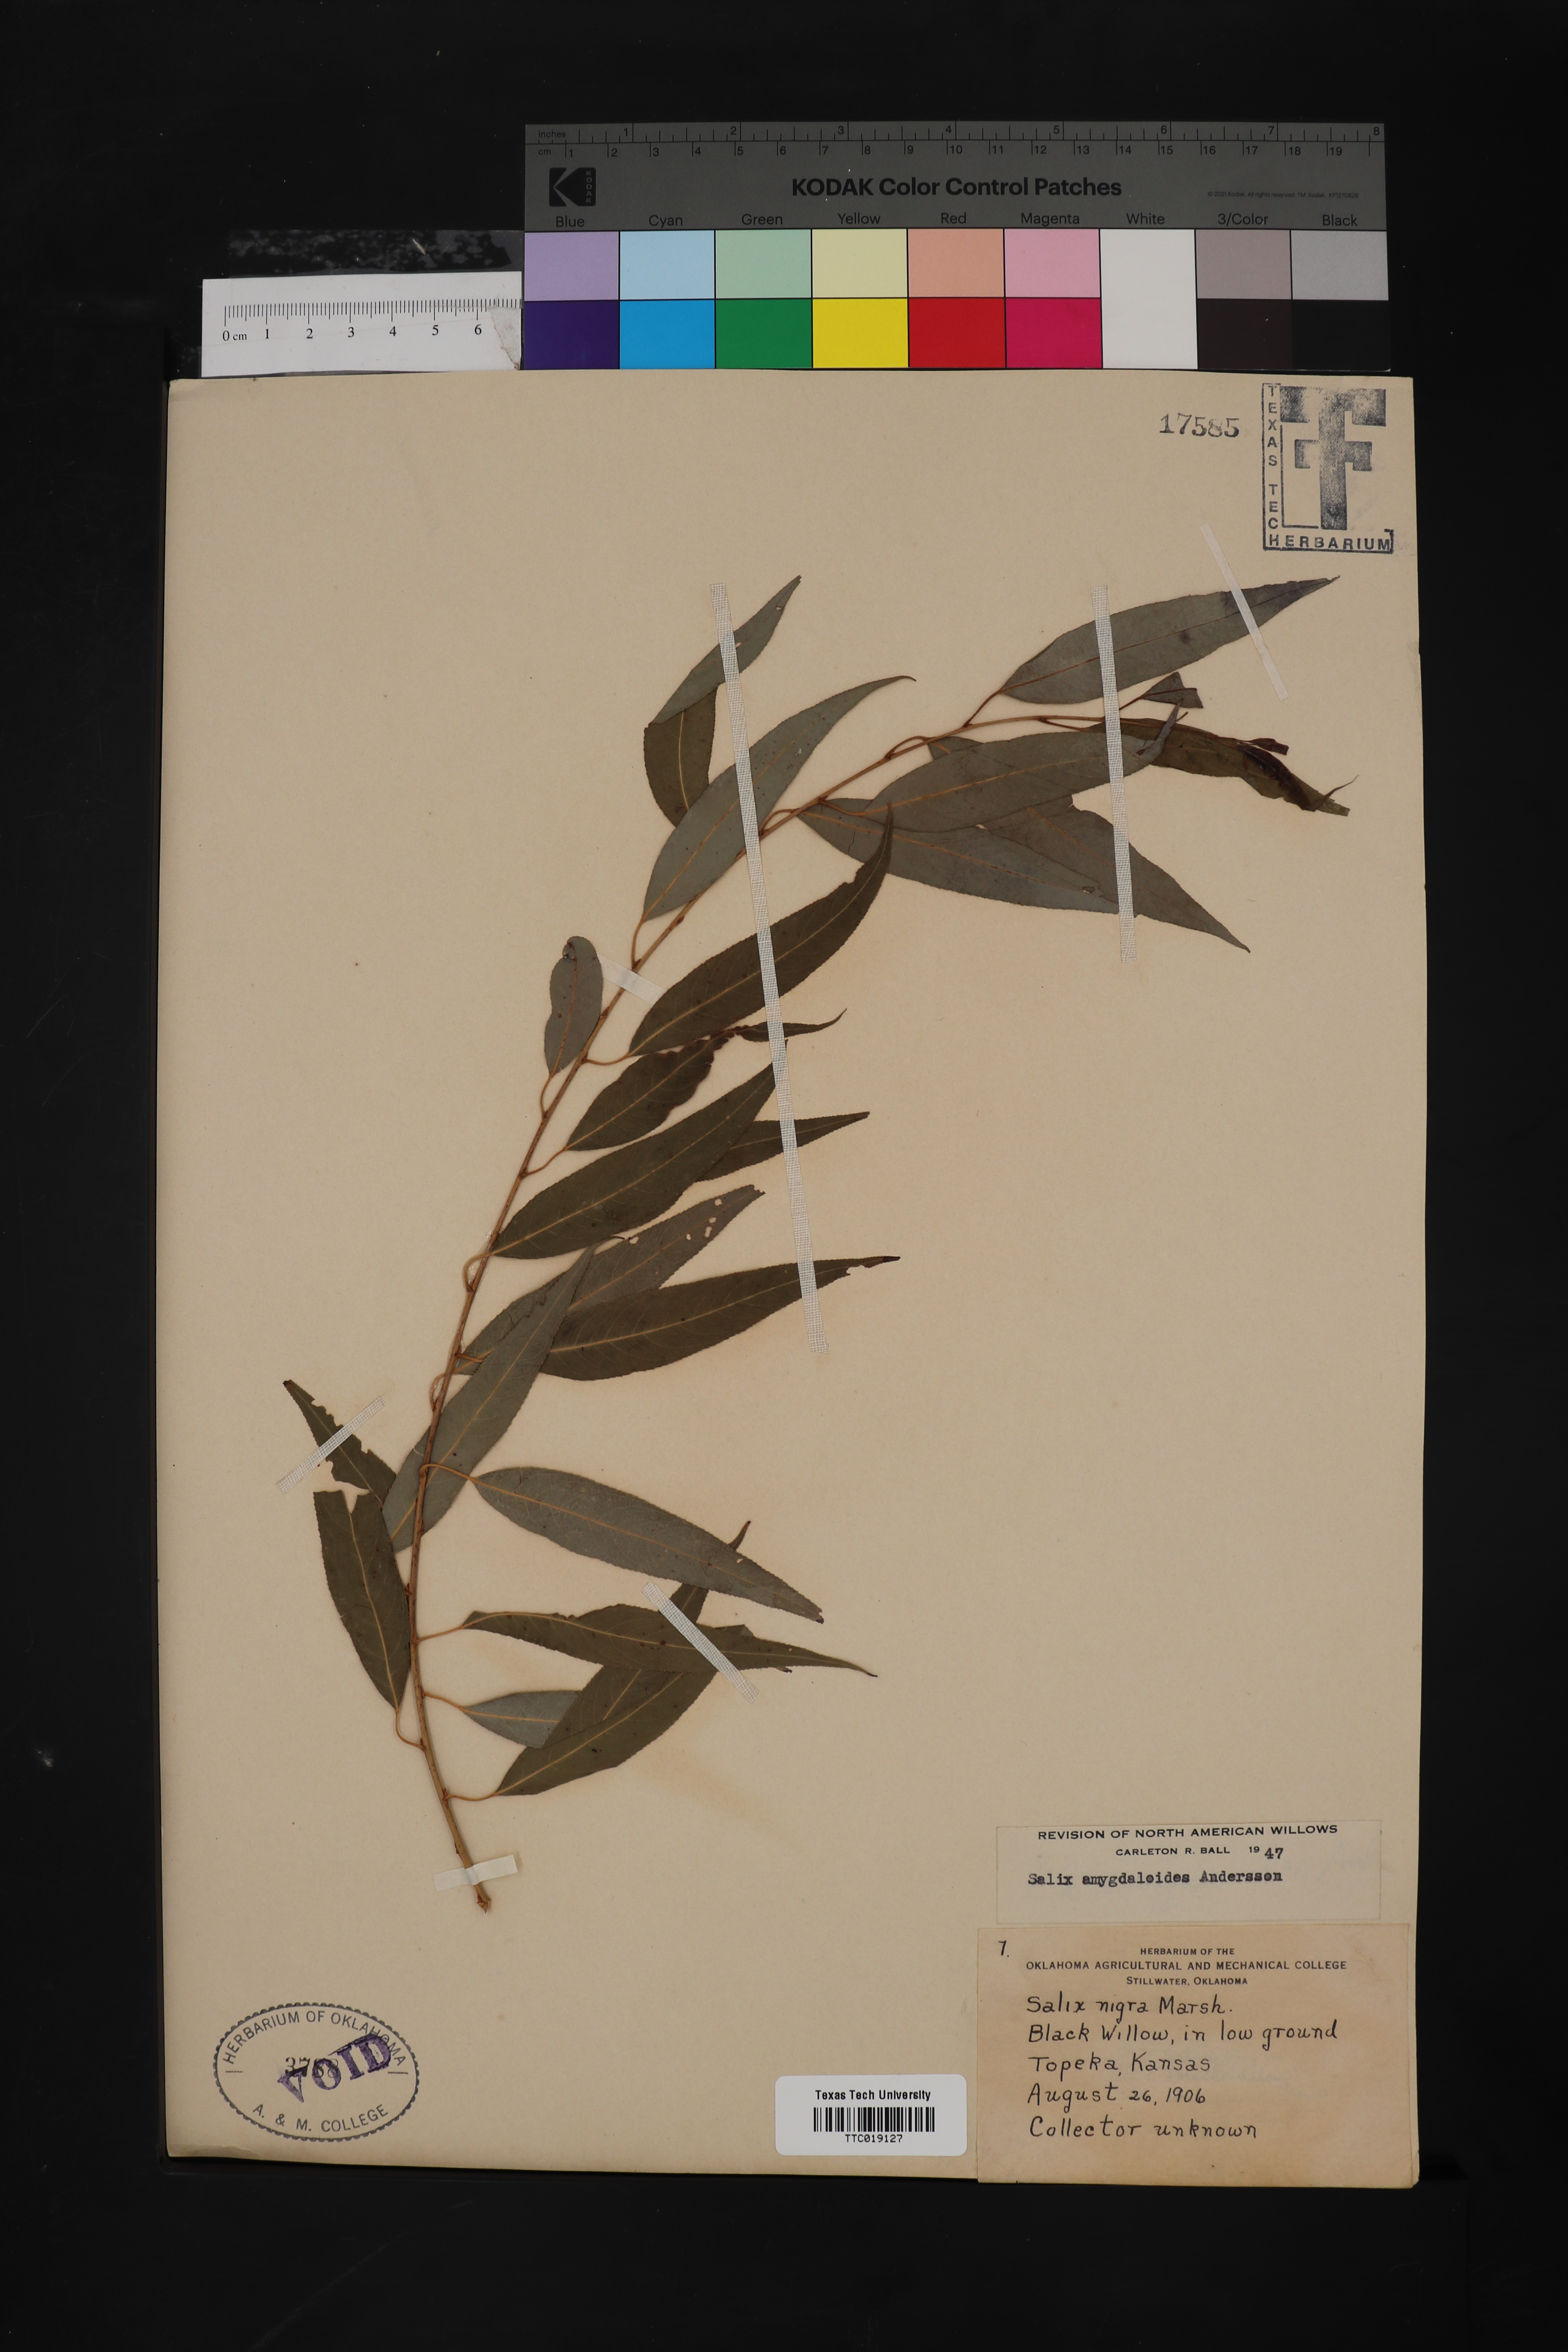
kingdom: Plantae
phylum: Tracheophyta
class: Magnoliopsida
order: Malpighiales
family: Salicaceae
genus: Salix
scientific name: Salix amygdaloides
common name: Peach leaf willow
